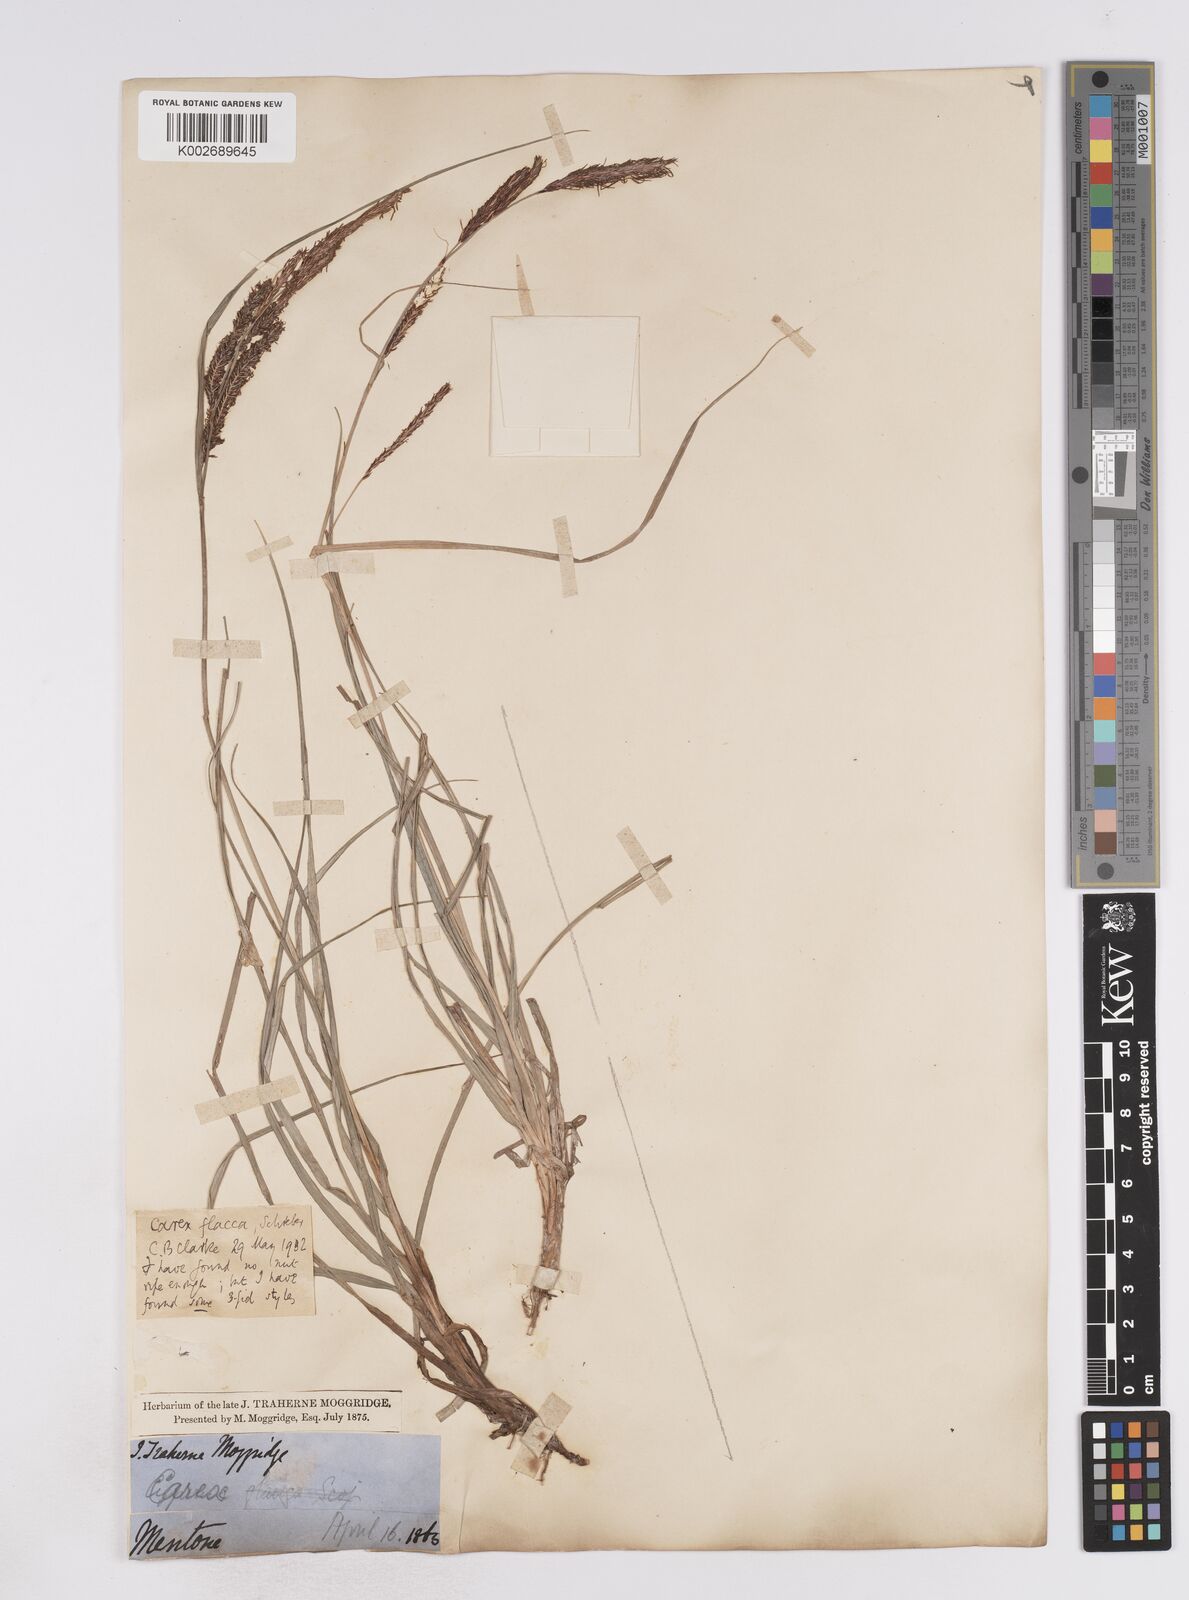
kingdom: Plantae
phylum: Tracheophyta
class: Liliopsida
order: Poales
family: Cyperaceae
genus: Carex
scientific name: Carex flacca
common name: Glaucous sedge
